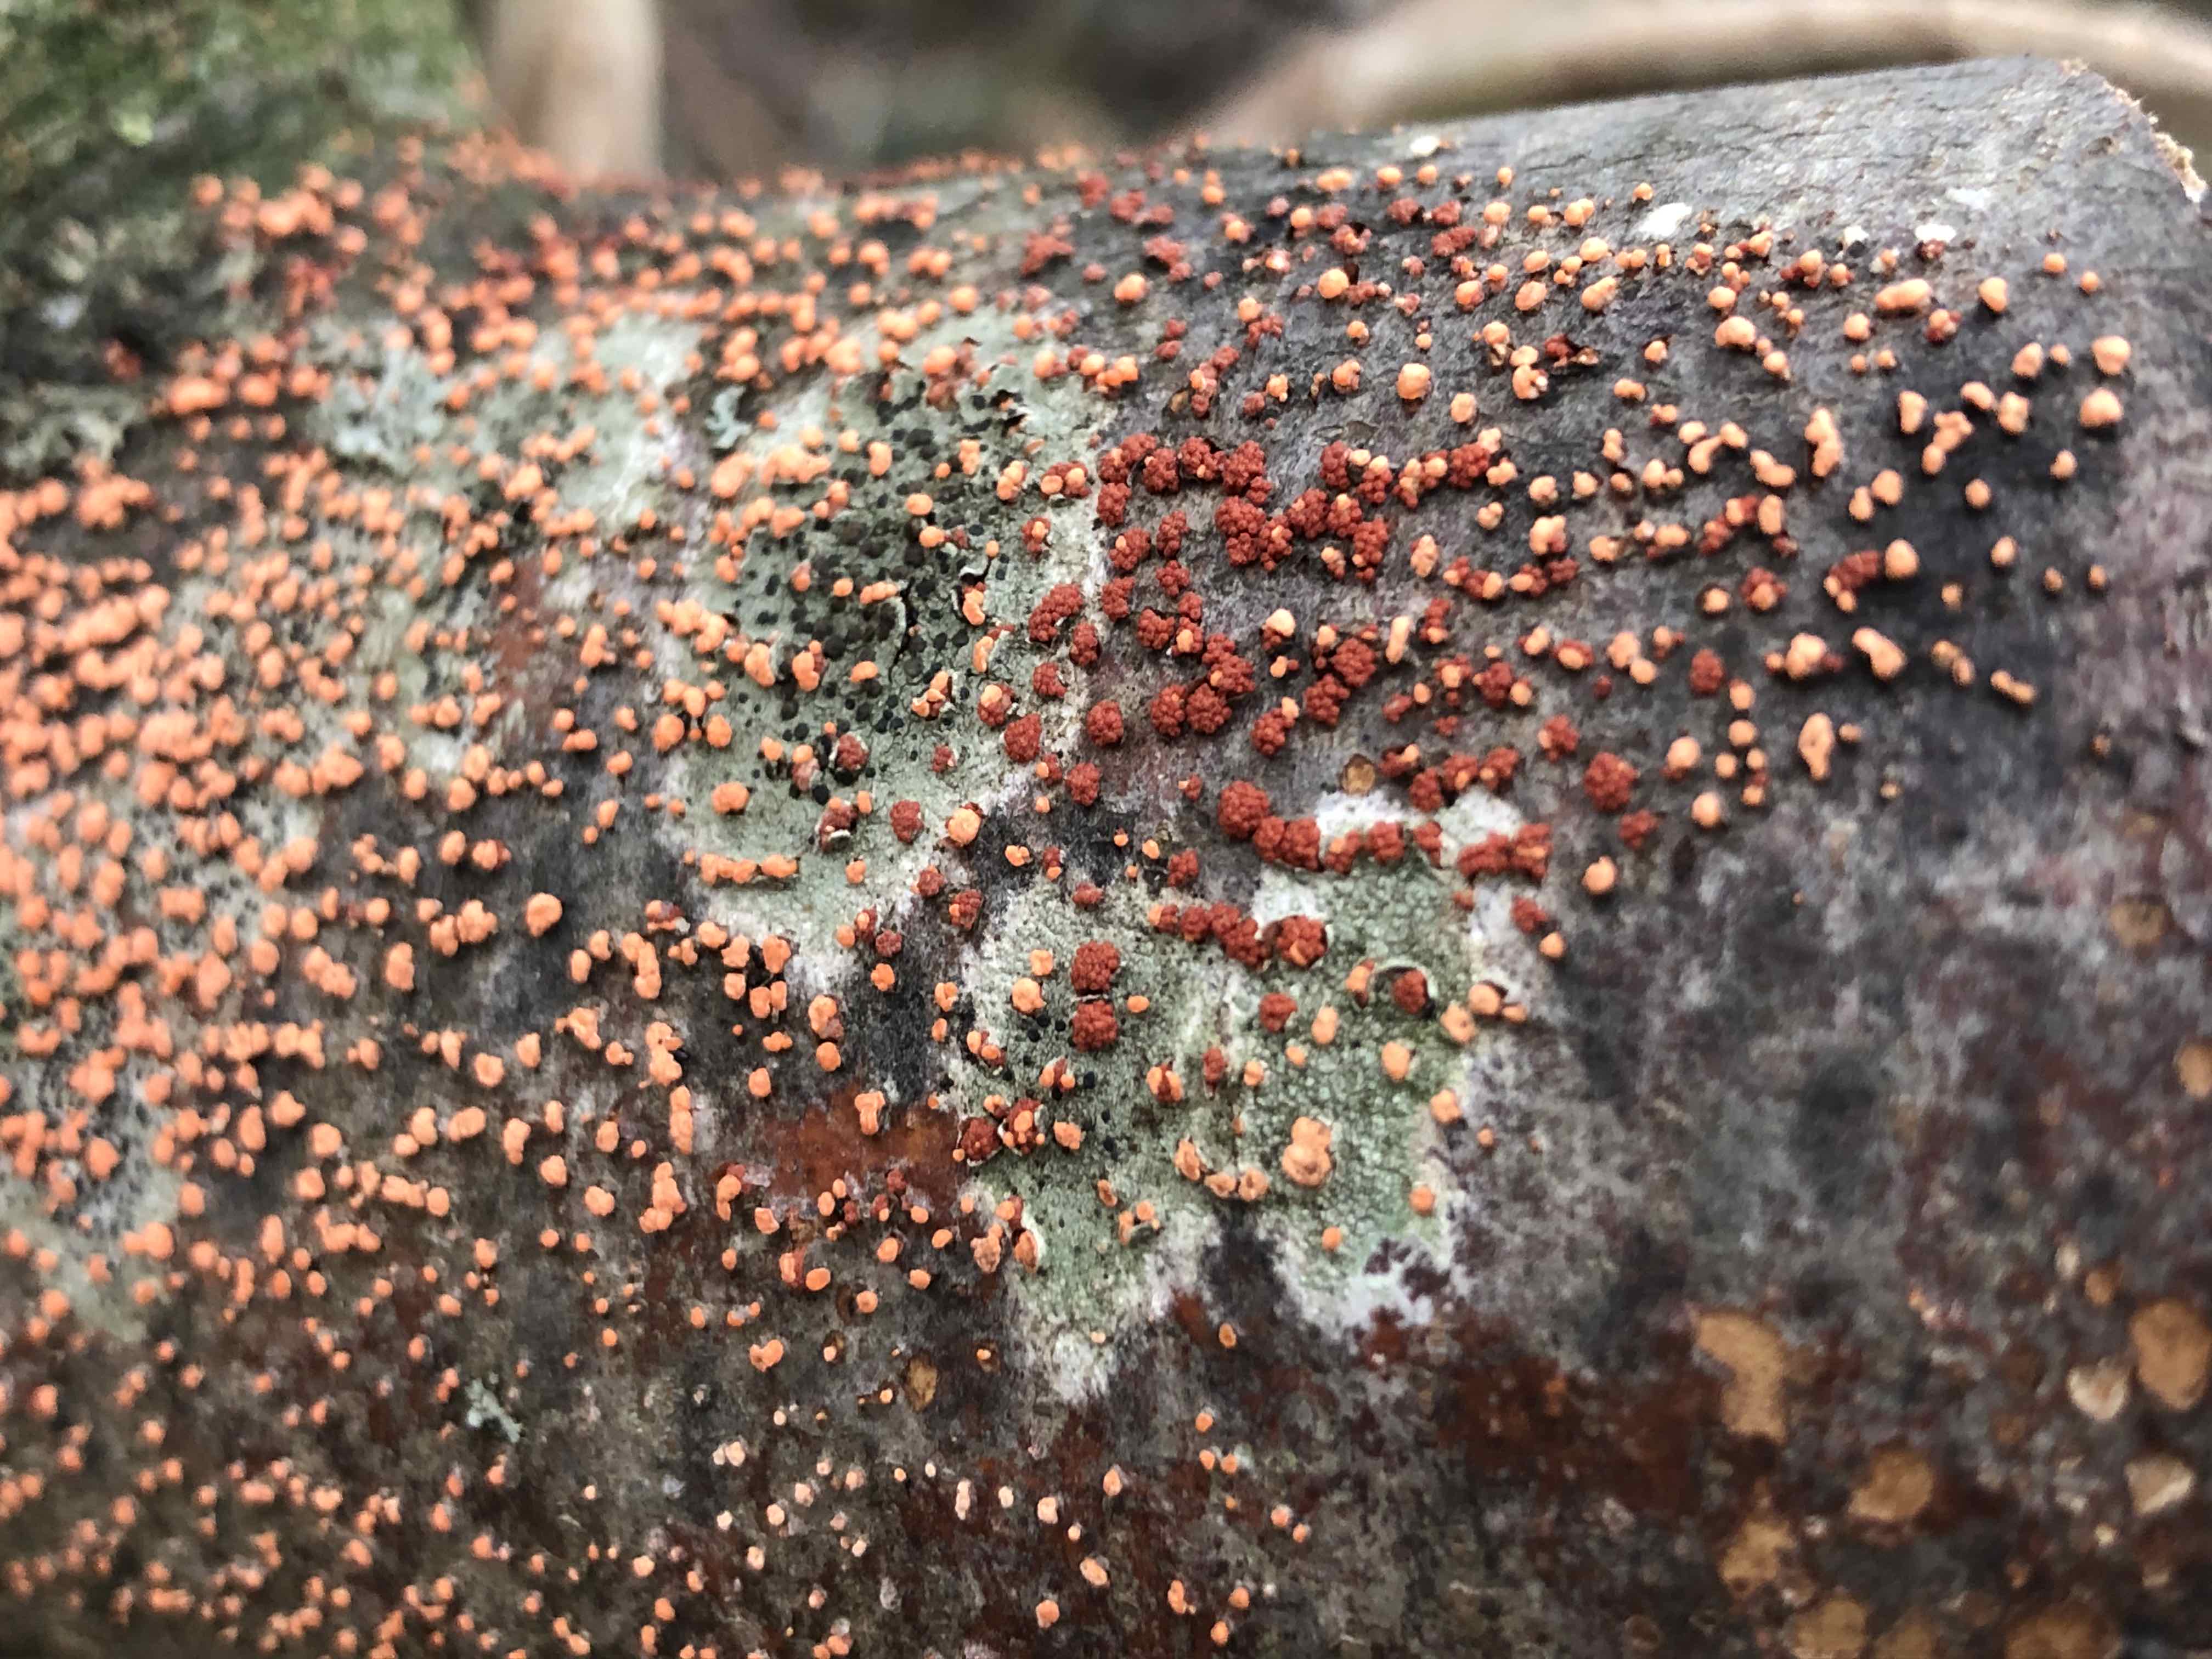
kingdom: Fungi
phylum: Ascomycota
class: Sordariomycetes
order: Hypocreales
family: Nectriaceae
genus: Nectria
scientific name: Nectria cinnabarina
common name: almindelig cinnobersvamp
